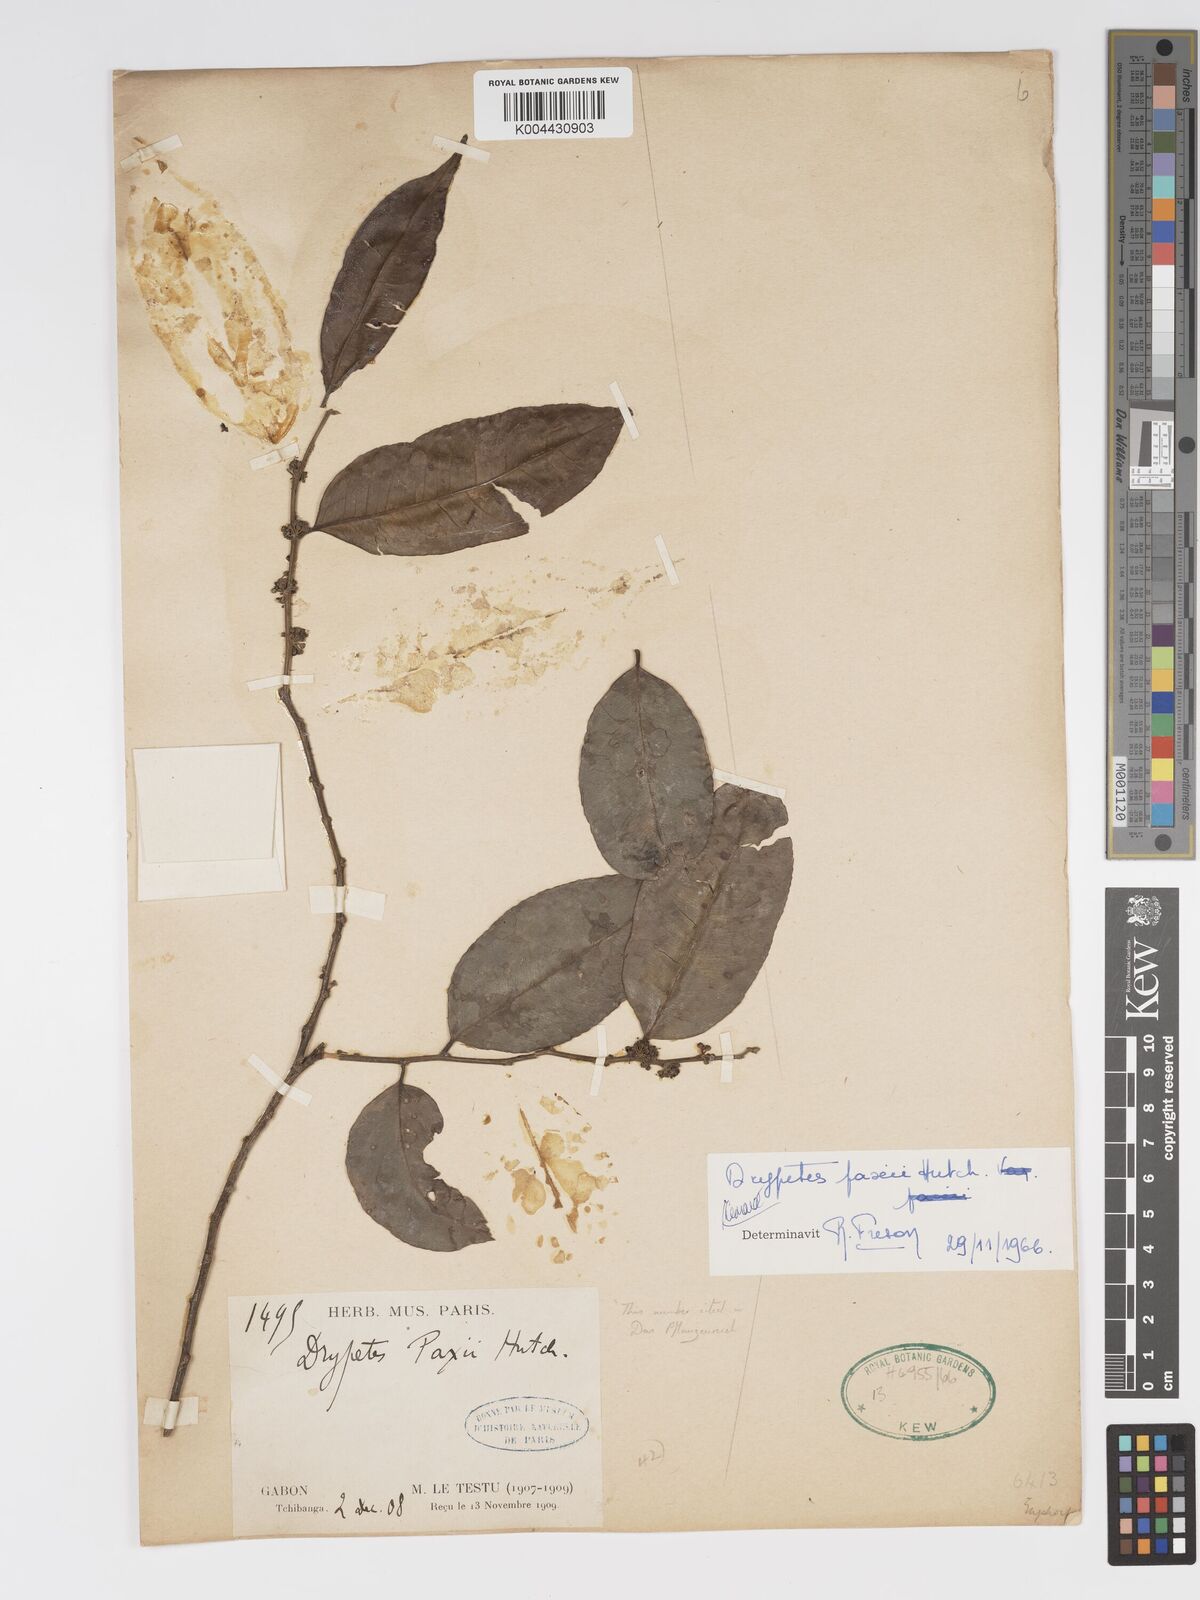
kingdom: Plantae
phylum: Tracheophyta
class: Magnoliopsida
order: Malpighiales
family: Putranjivaceae
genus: Drypetes
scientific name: Drypetes paxii
